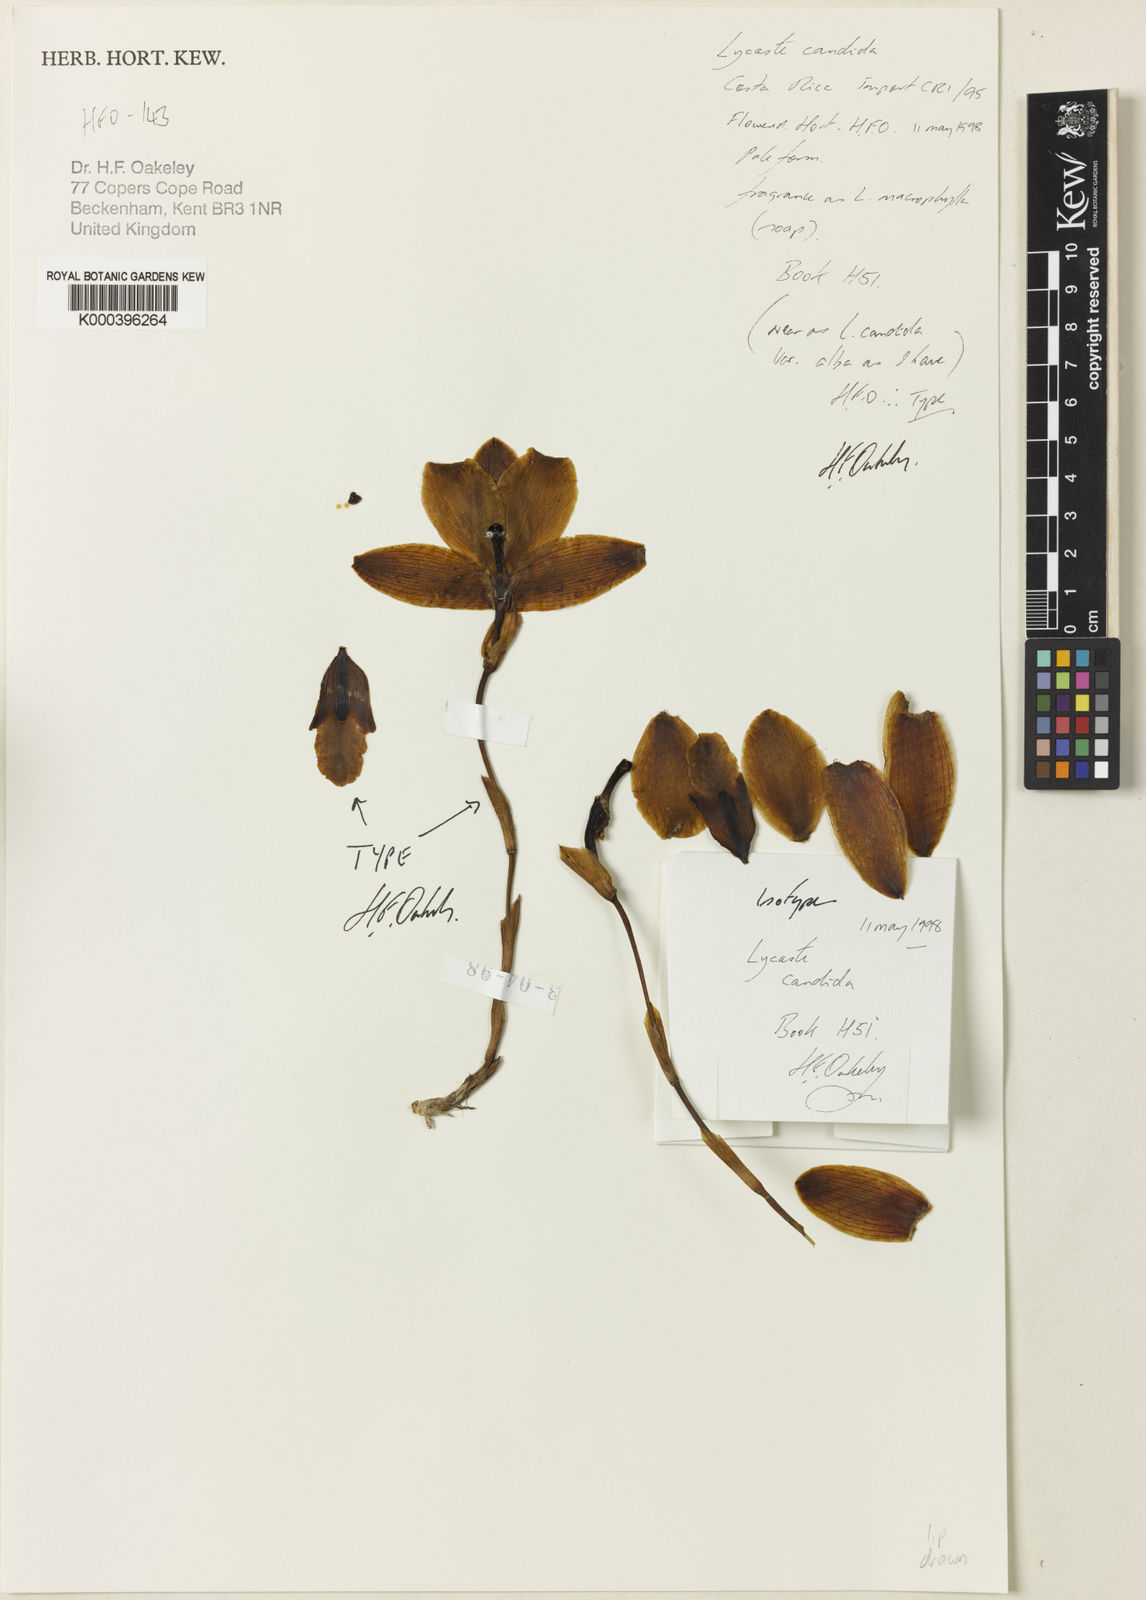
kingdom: Plantae
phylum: Tracheophyta
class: Liliopsida
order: Asparagales
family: Orchidaceae
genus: Lycaste
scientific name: Lycaste brevispatha
